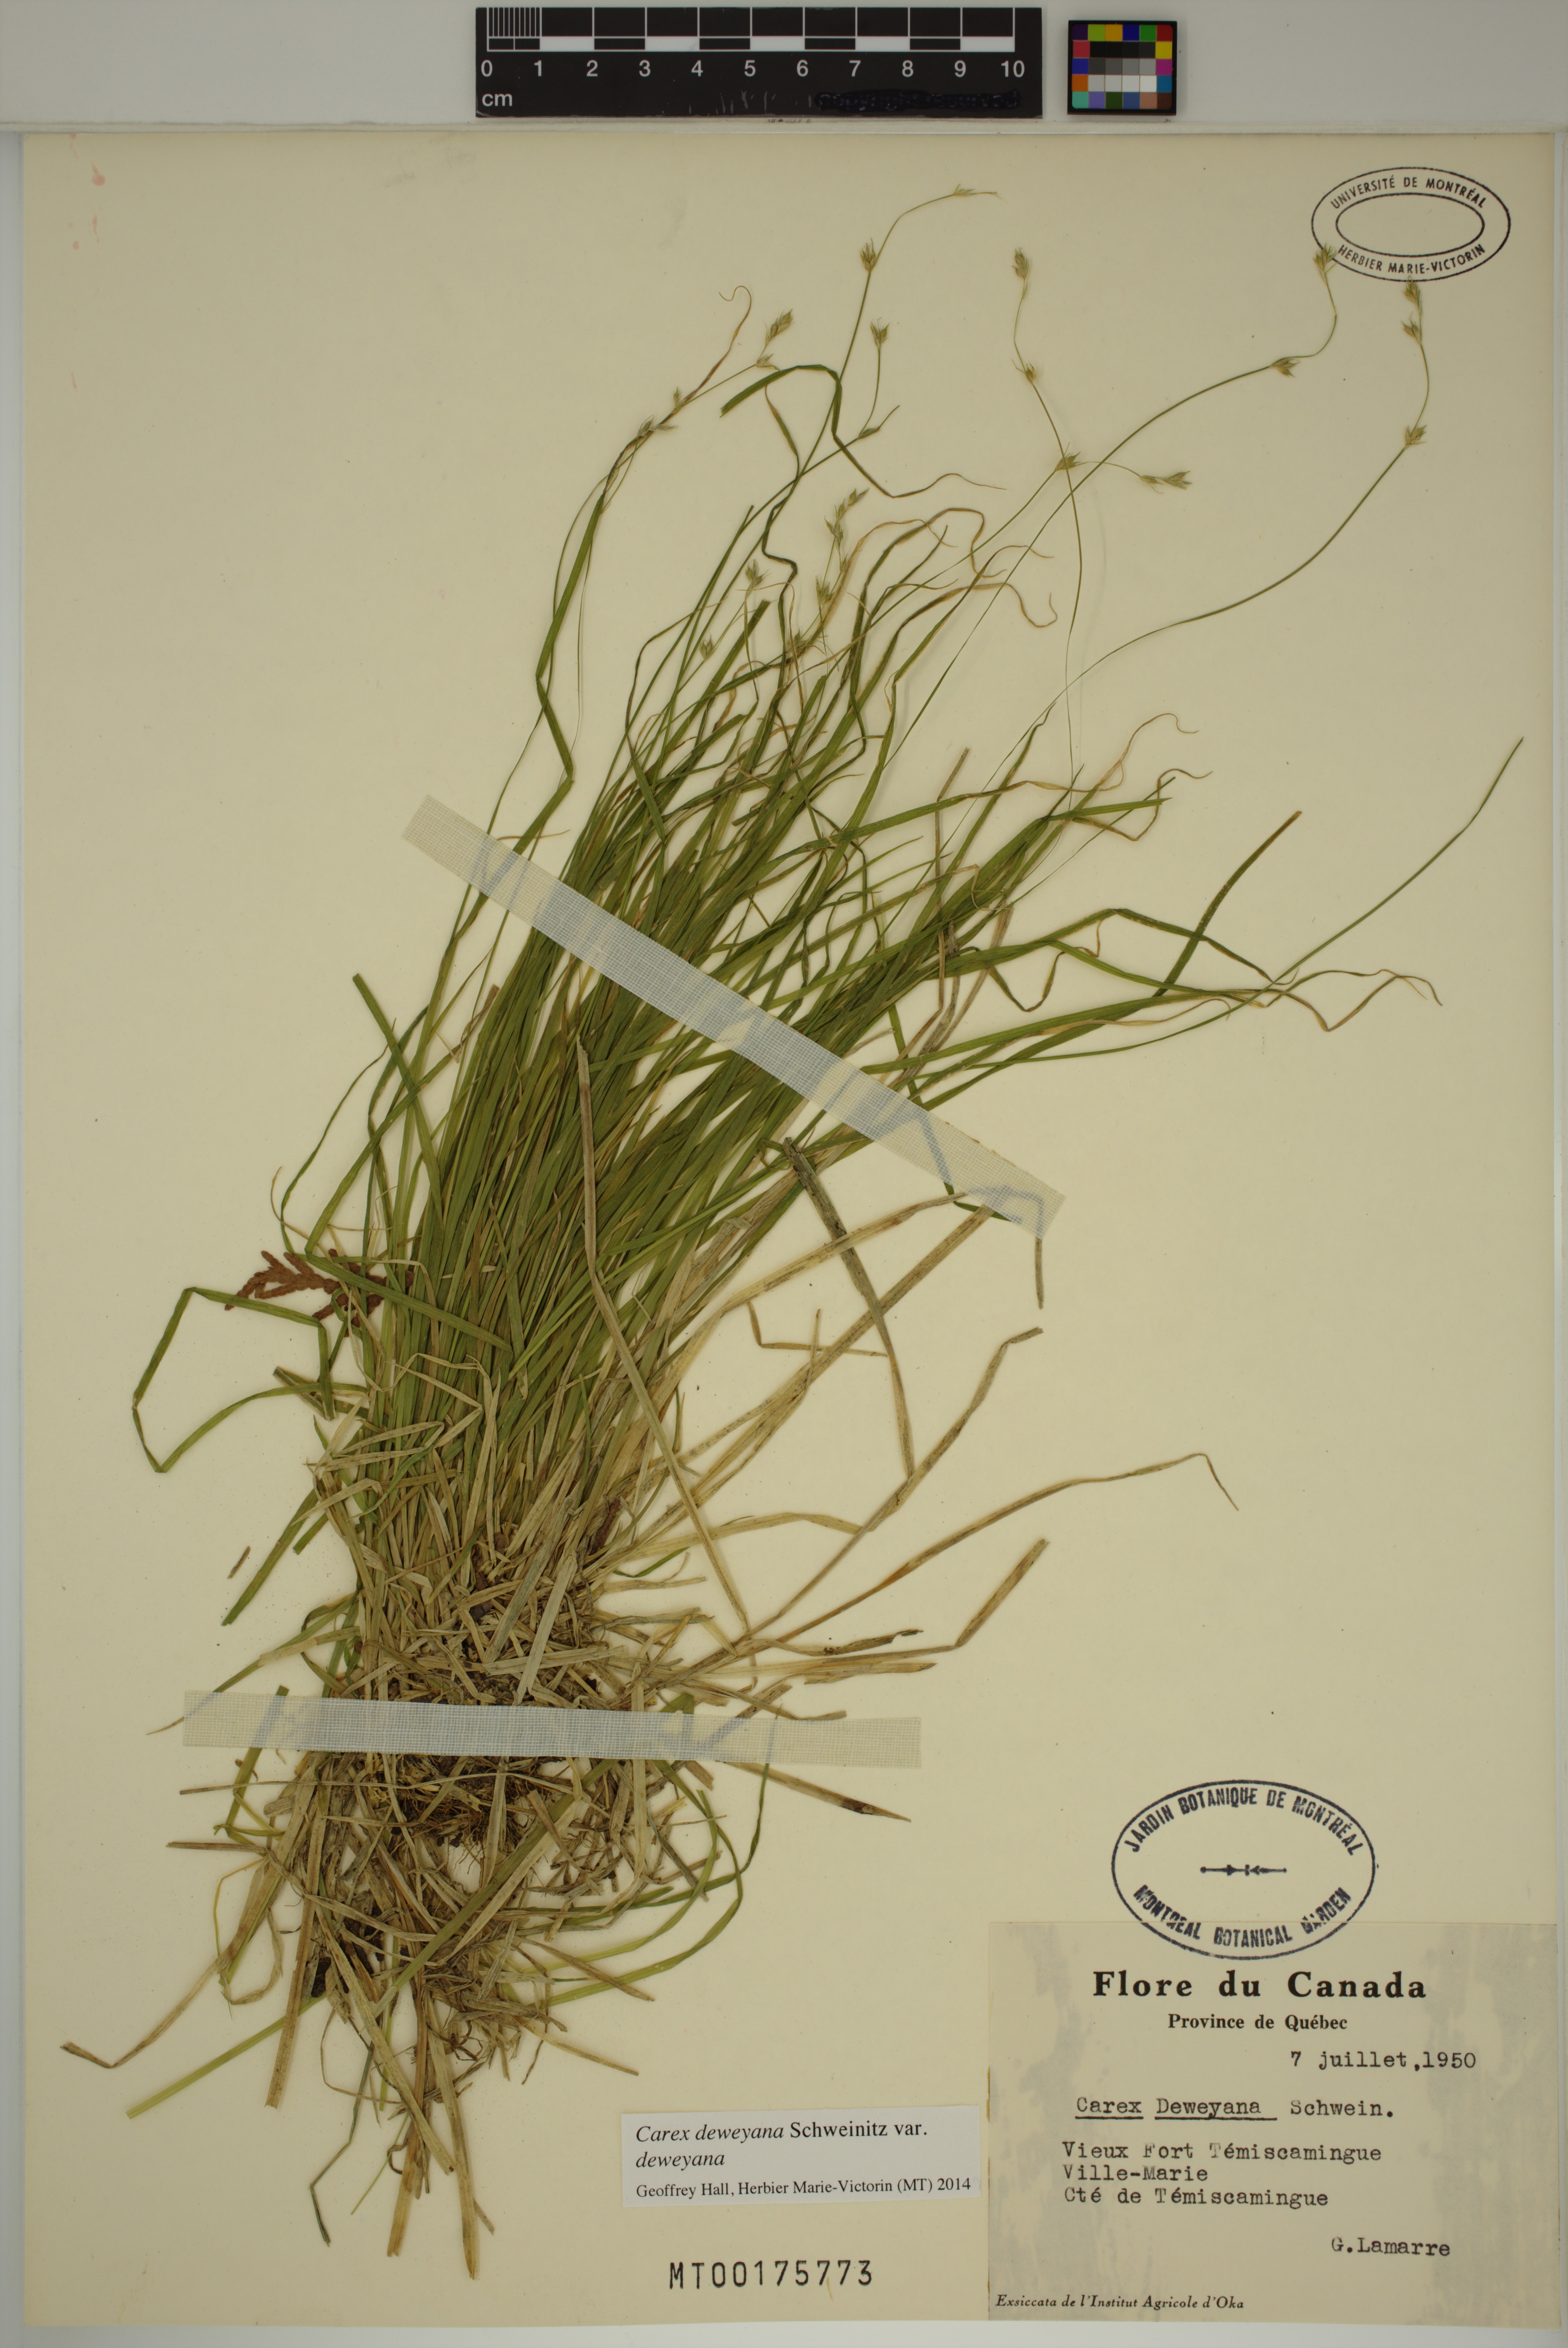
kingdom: Plantae
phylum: Tracheophyta
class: Liliopsida
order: Poales
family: Cyperaceae
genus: Carex
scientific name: Carex deweyana
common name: Dewey's sedge
